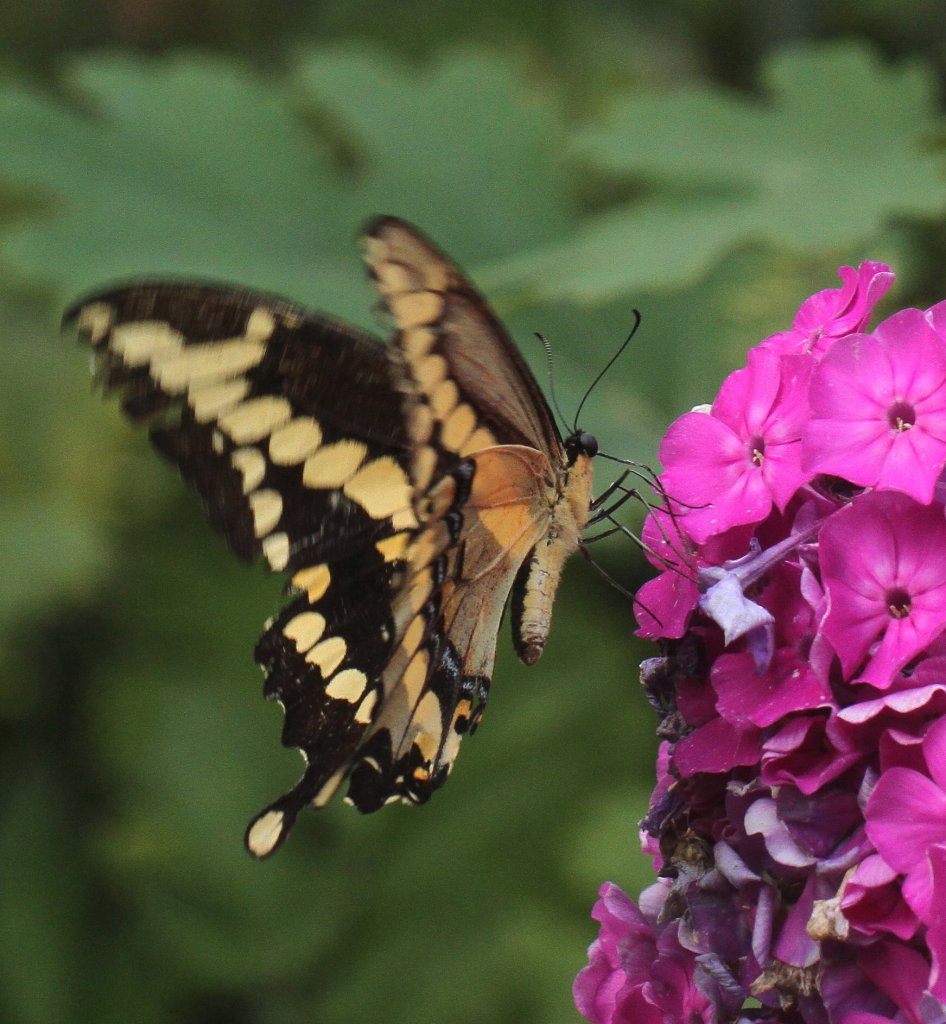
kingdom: Animalia
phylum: Arthropoda
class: Insecta
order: Lepidoptera
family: Papilionidae
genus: Papilio
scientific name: Papilio cresphontes
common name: Eastern Giant Swallowtail
